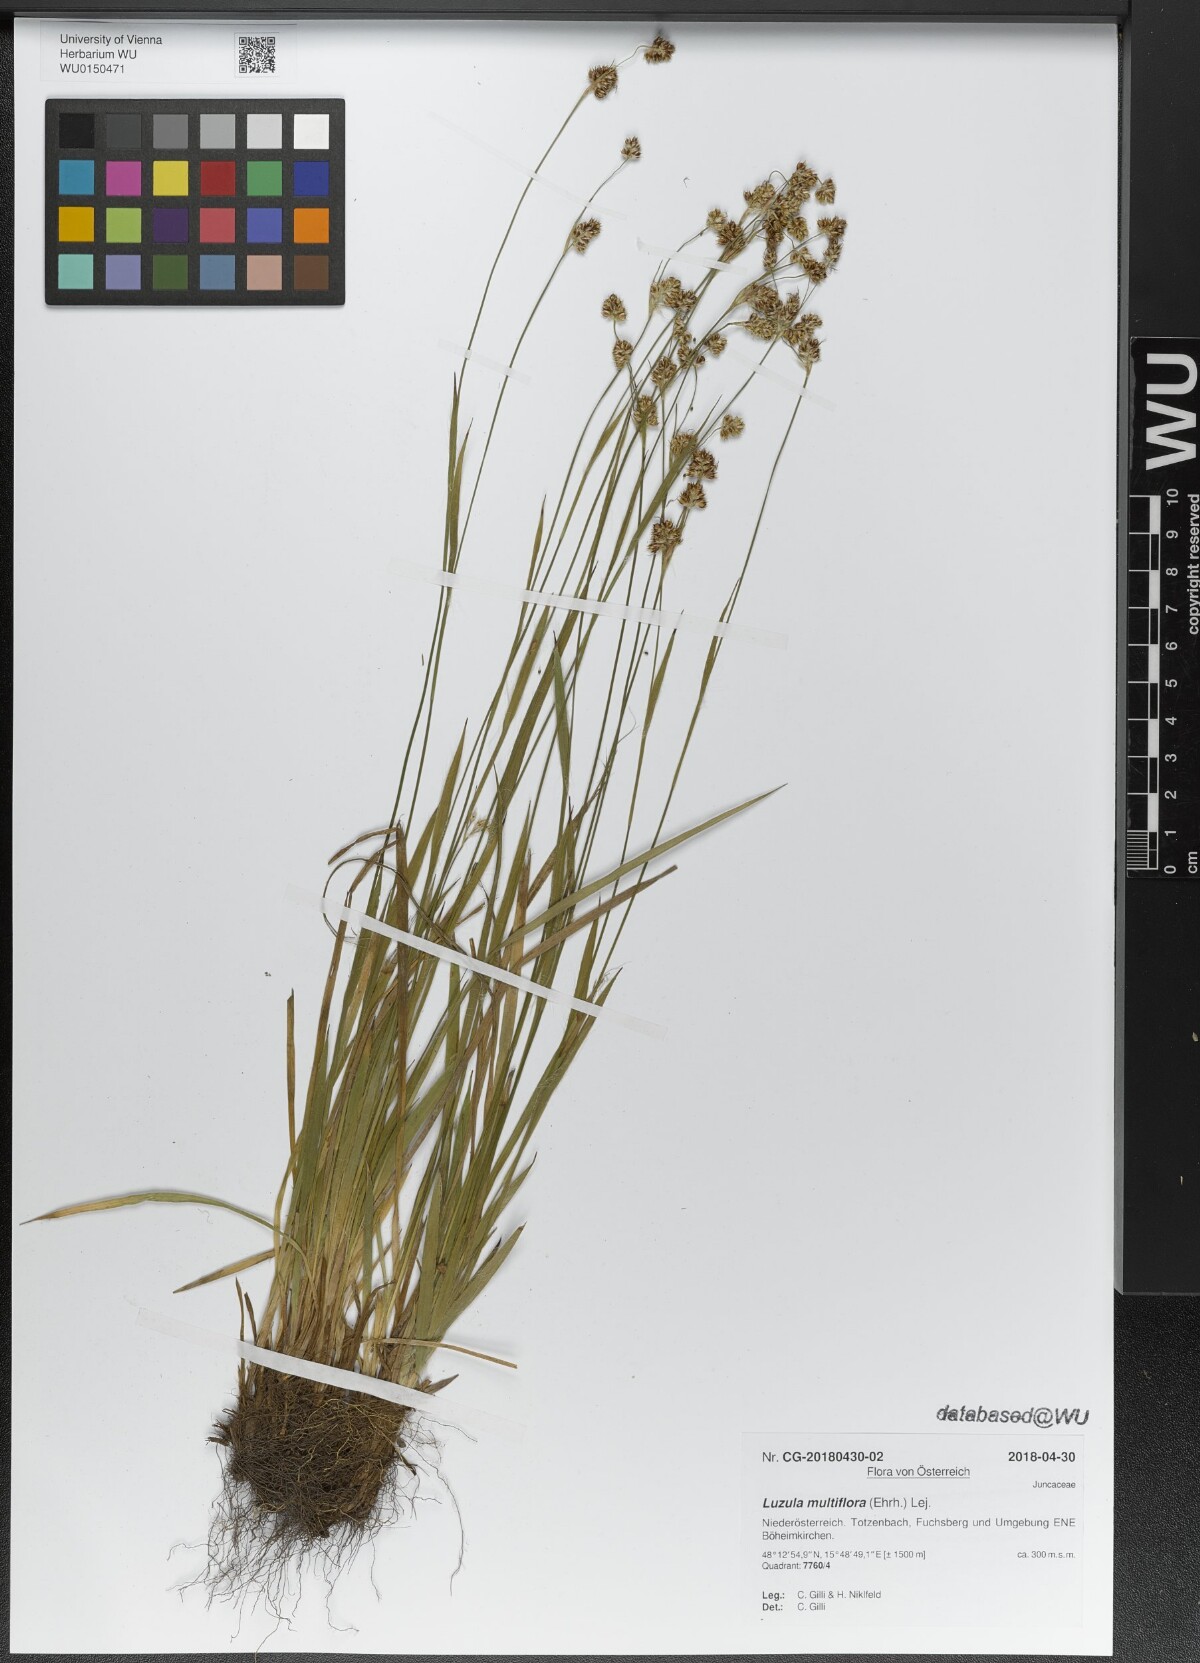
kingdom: Plantae
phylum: Tracheophyta
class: Liliopsida
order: Poales
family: Juncaceae
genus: Luzula
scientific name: Luzula multiflora
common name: Heath wood-rush
